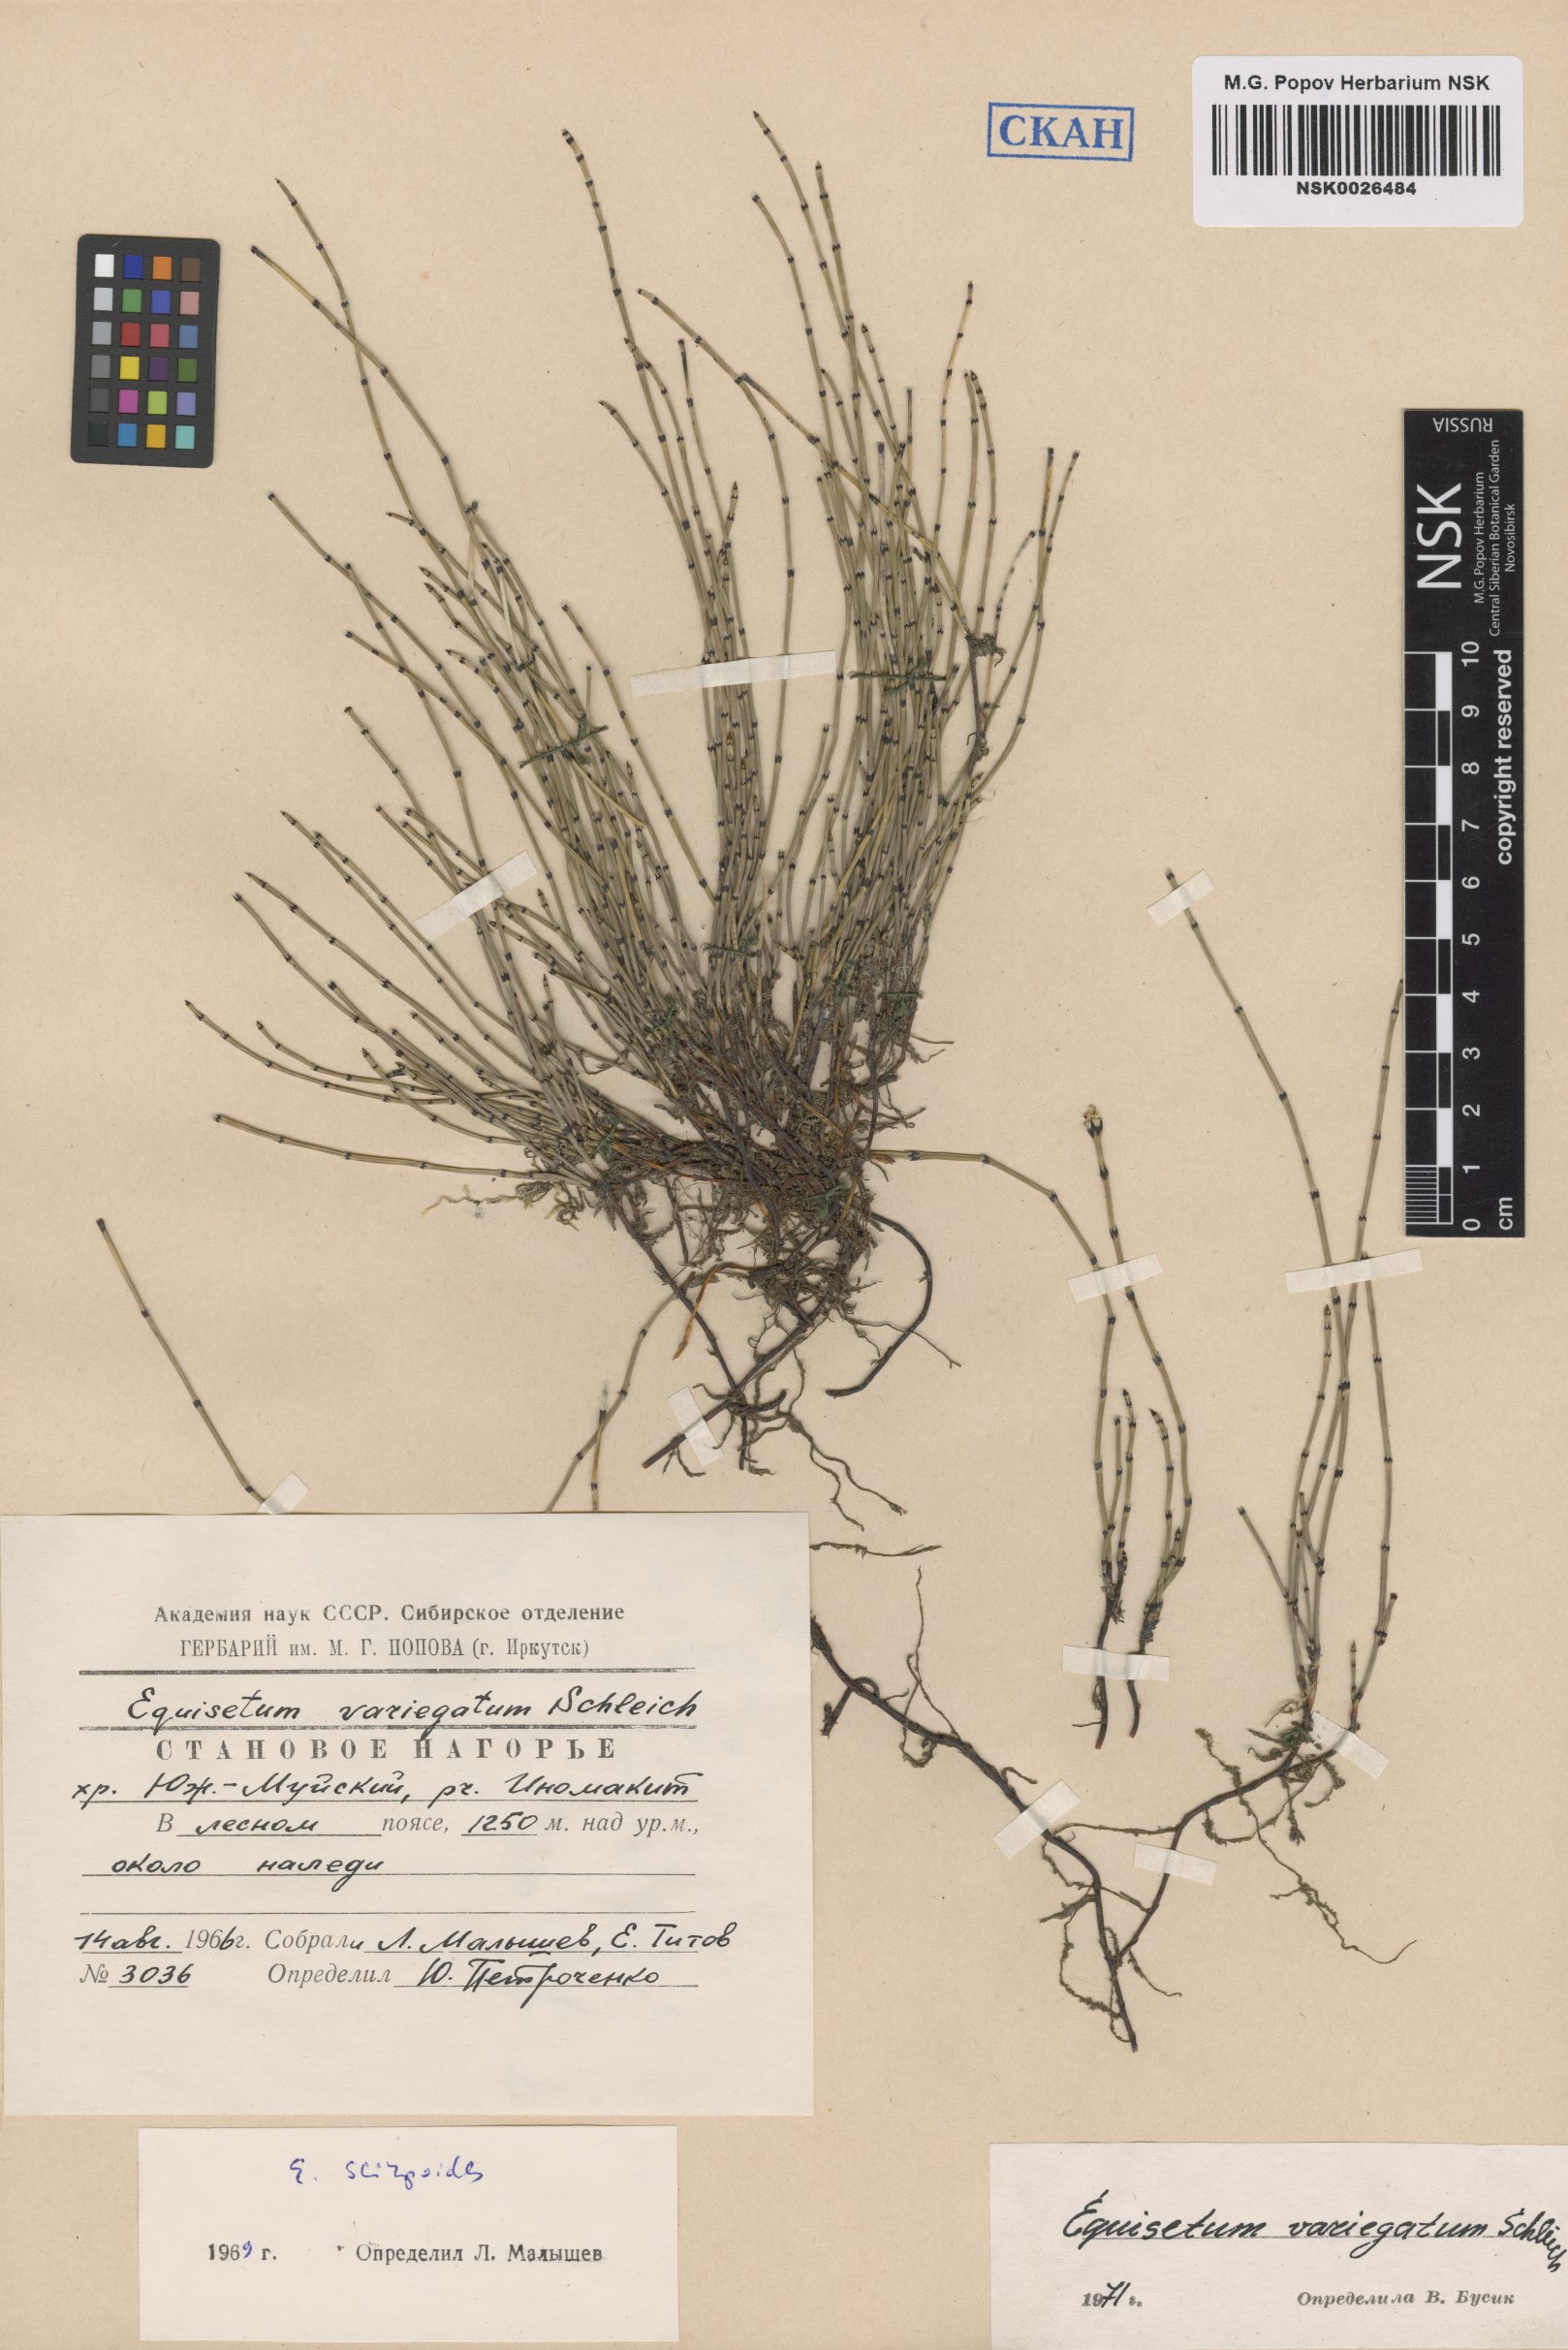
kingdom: Plantae
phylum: Tracheophyta
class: Polypodiopsida
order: Equisetales
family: Equisetaceae
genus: Equisetum
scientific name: Equisetum variegatum
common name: Variegated horsetail
